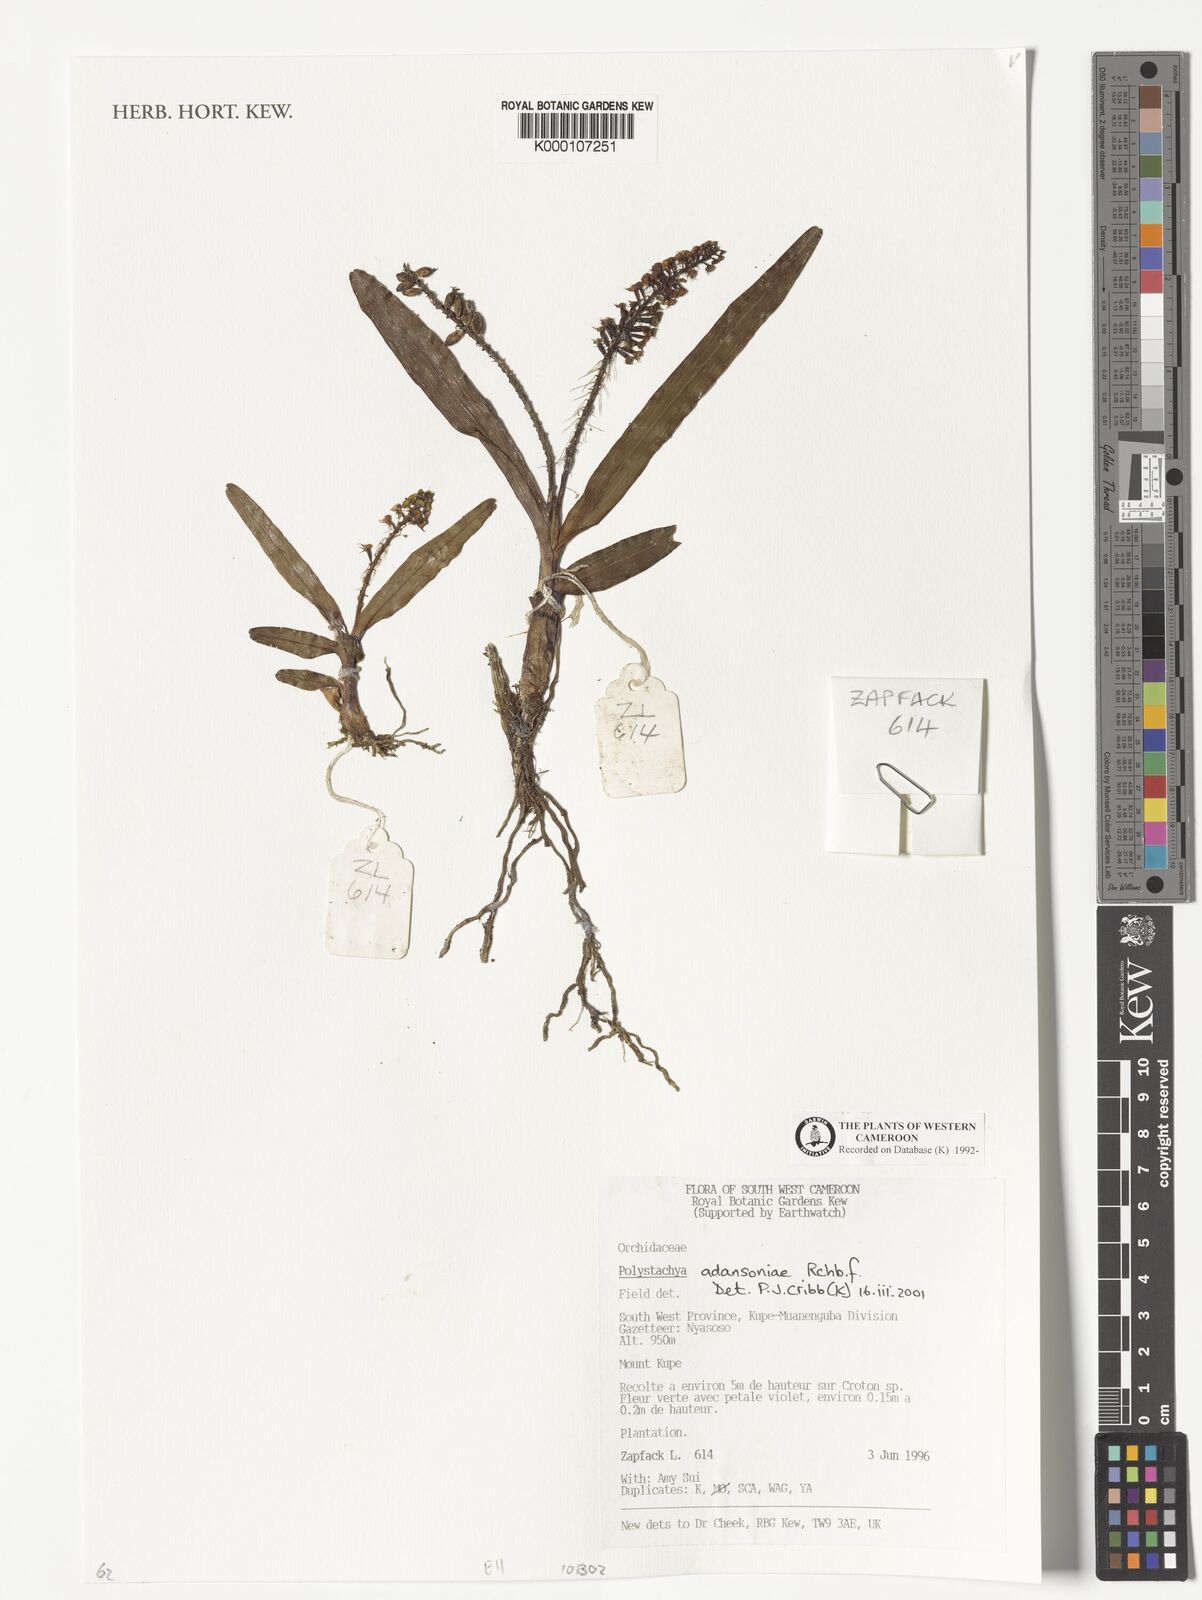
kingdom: Plantae
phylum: Tracheophyta
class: Liliopsida
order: Asparagales
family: Orchidaceae
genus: Polystachya
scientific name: Polystachya adansoniae
